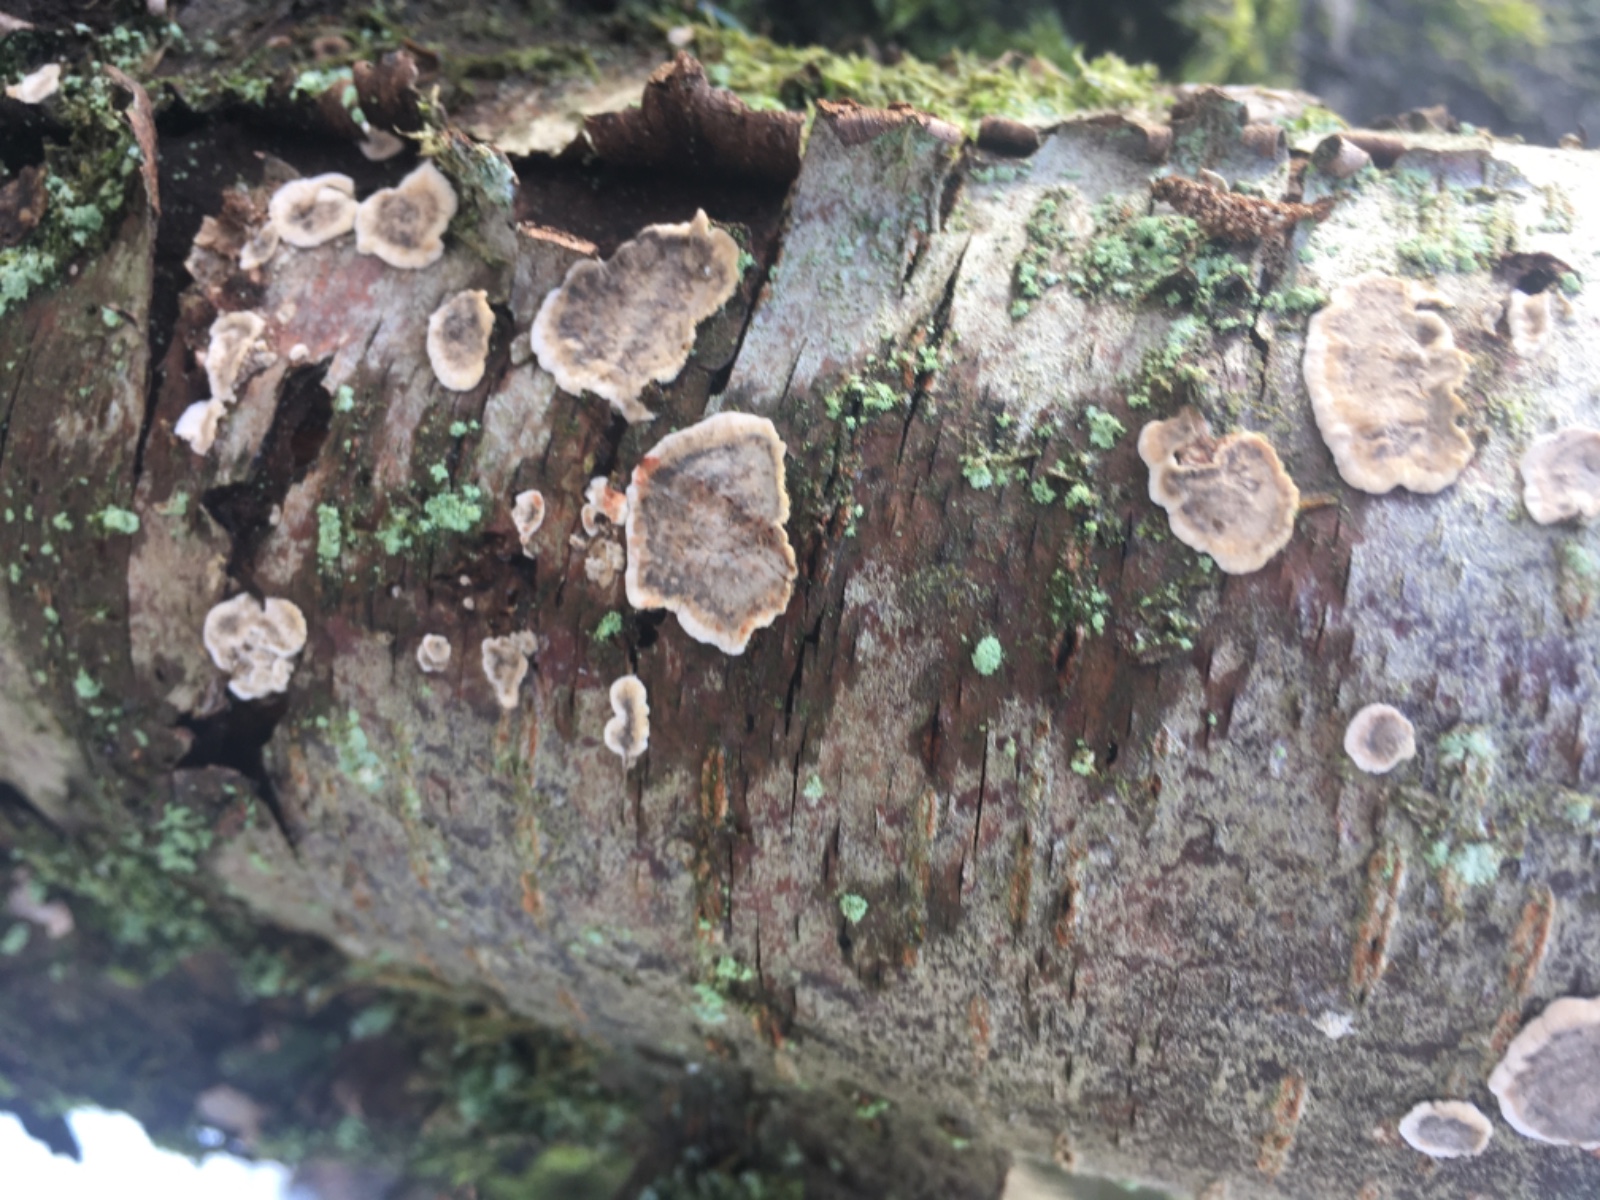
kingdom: Fungi
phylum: Basidiomycota
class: Agaricomycetes
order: Russulales
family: Stereaceae
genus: Stereum
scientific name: Stereum rugosum
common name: rynket lædersvamp
